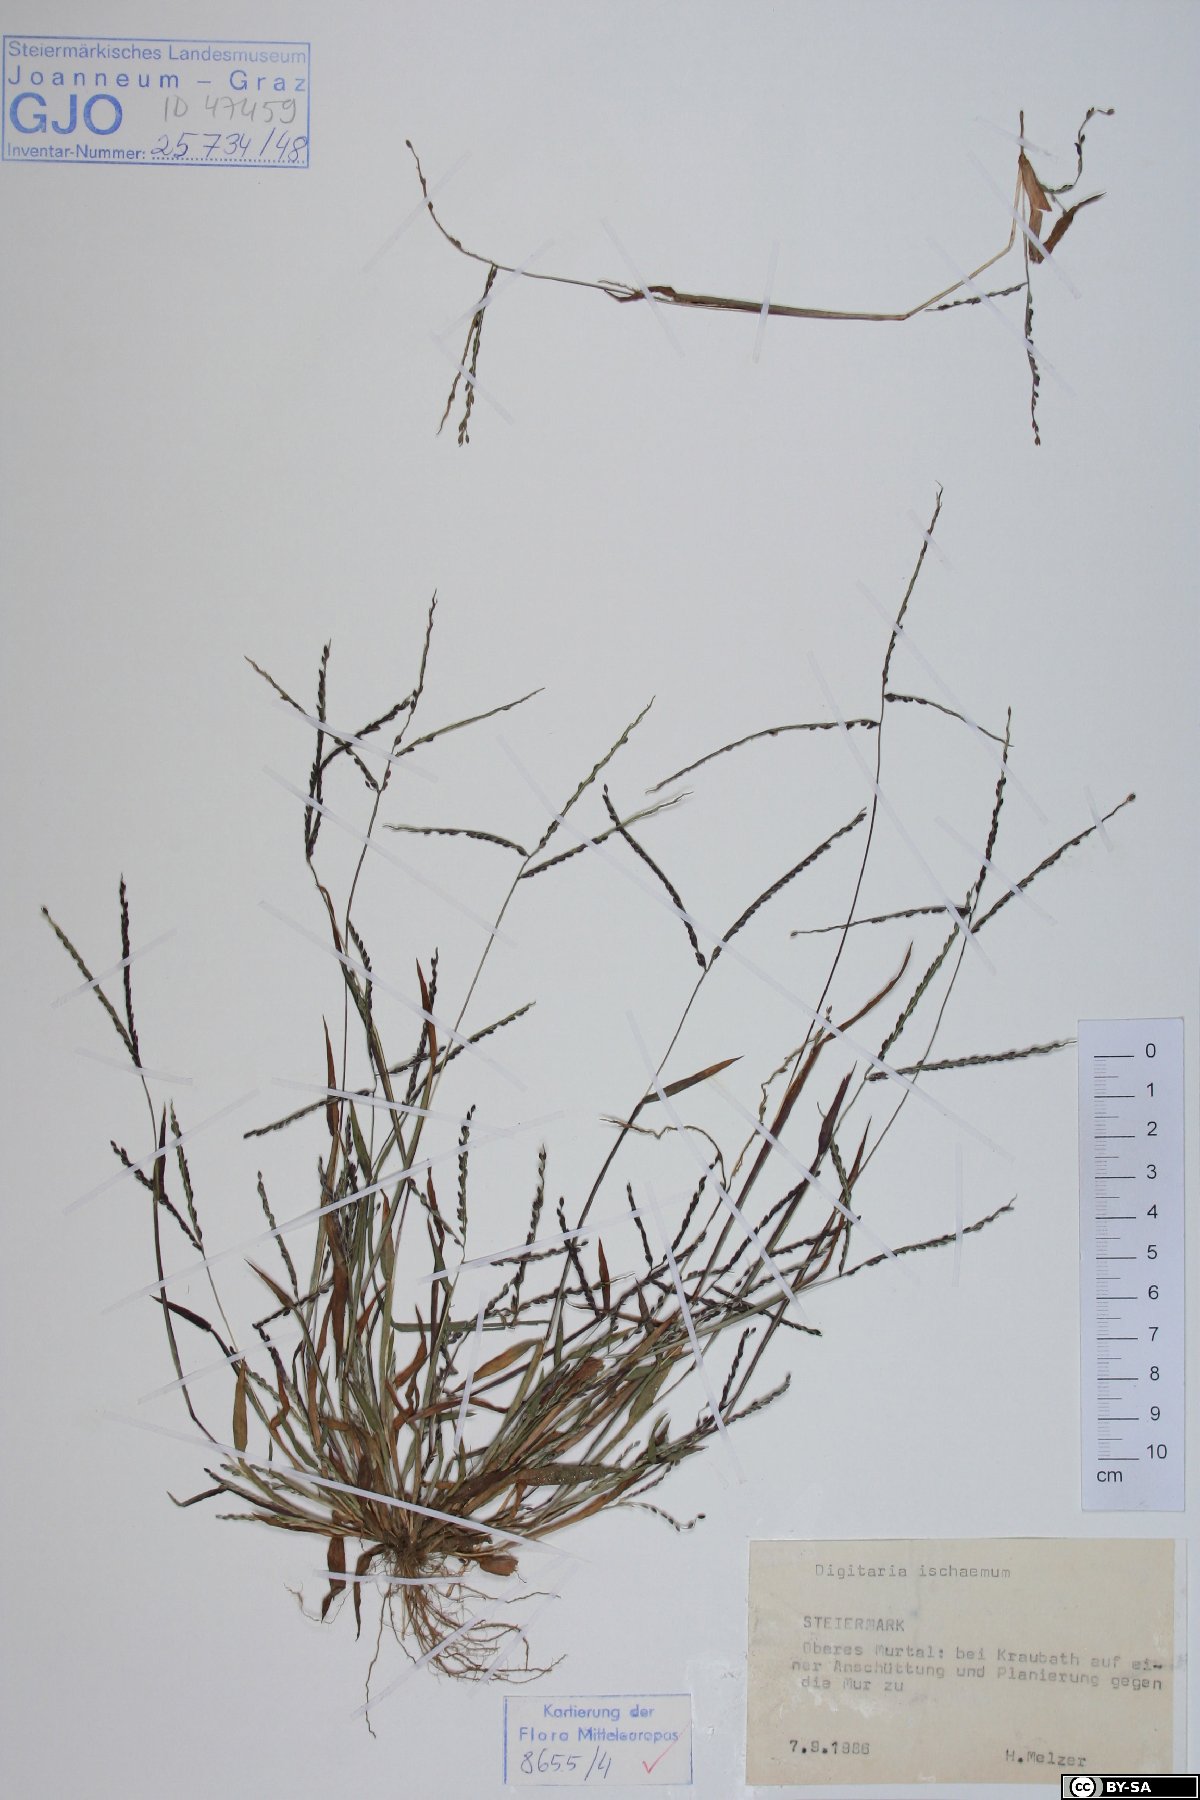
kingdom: Plantae
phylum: Tracheophyta
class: Liliopsida
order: Poales
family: Poaceae
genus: Digitaria
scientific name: Digitaria ischaemum
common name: Smooth crabgrass
